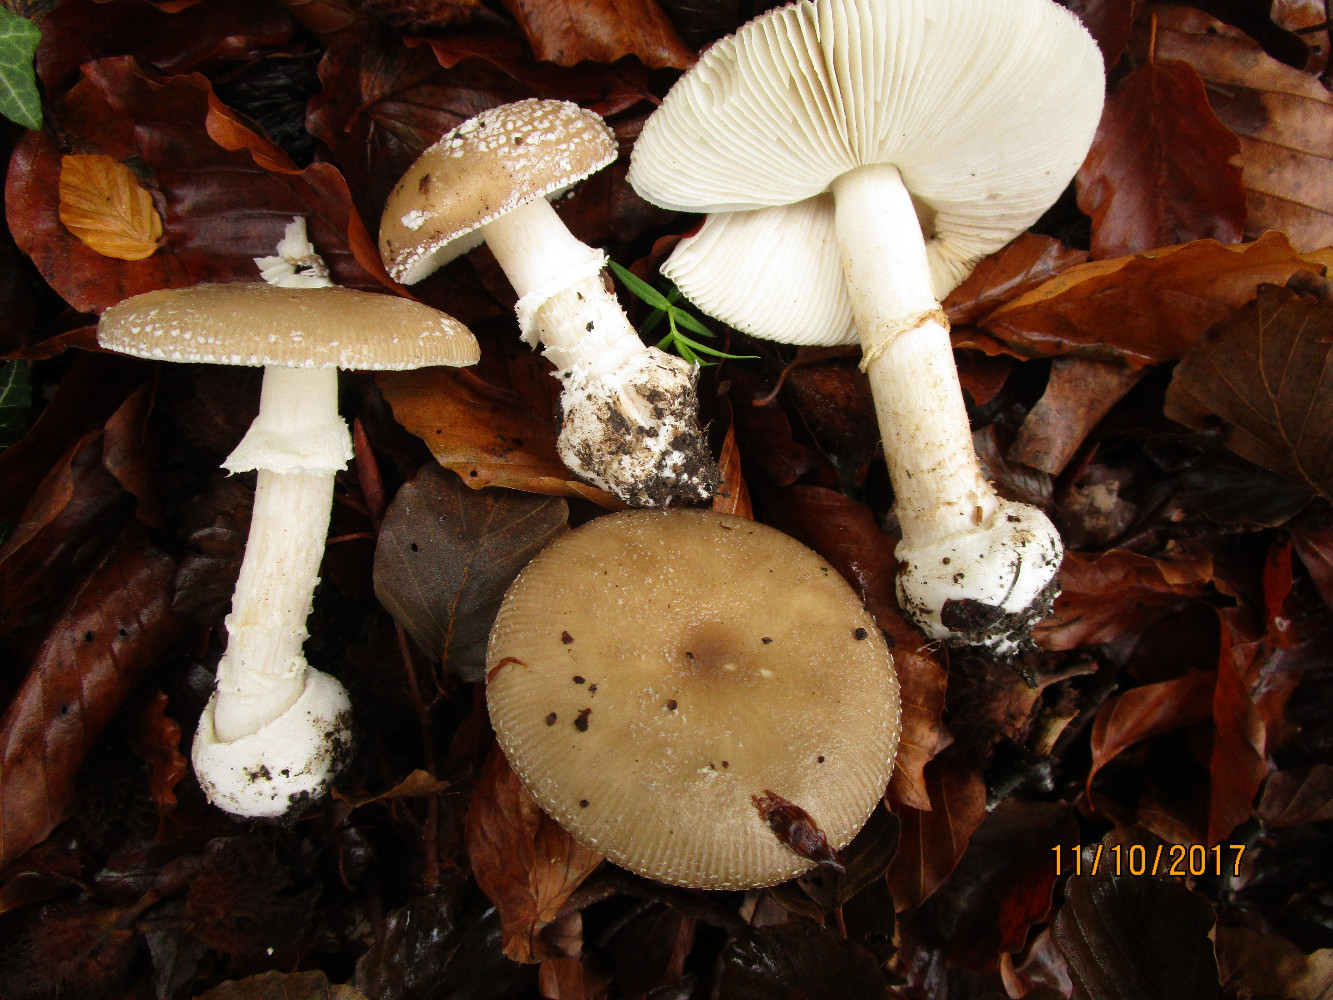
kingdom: Fungi
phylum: Basidiomycota
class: Agaricomycetes
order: Agaricales
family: Amanitaceae
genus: Amanita
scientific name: Amanita pantherina
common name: panter-fluesvamp
